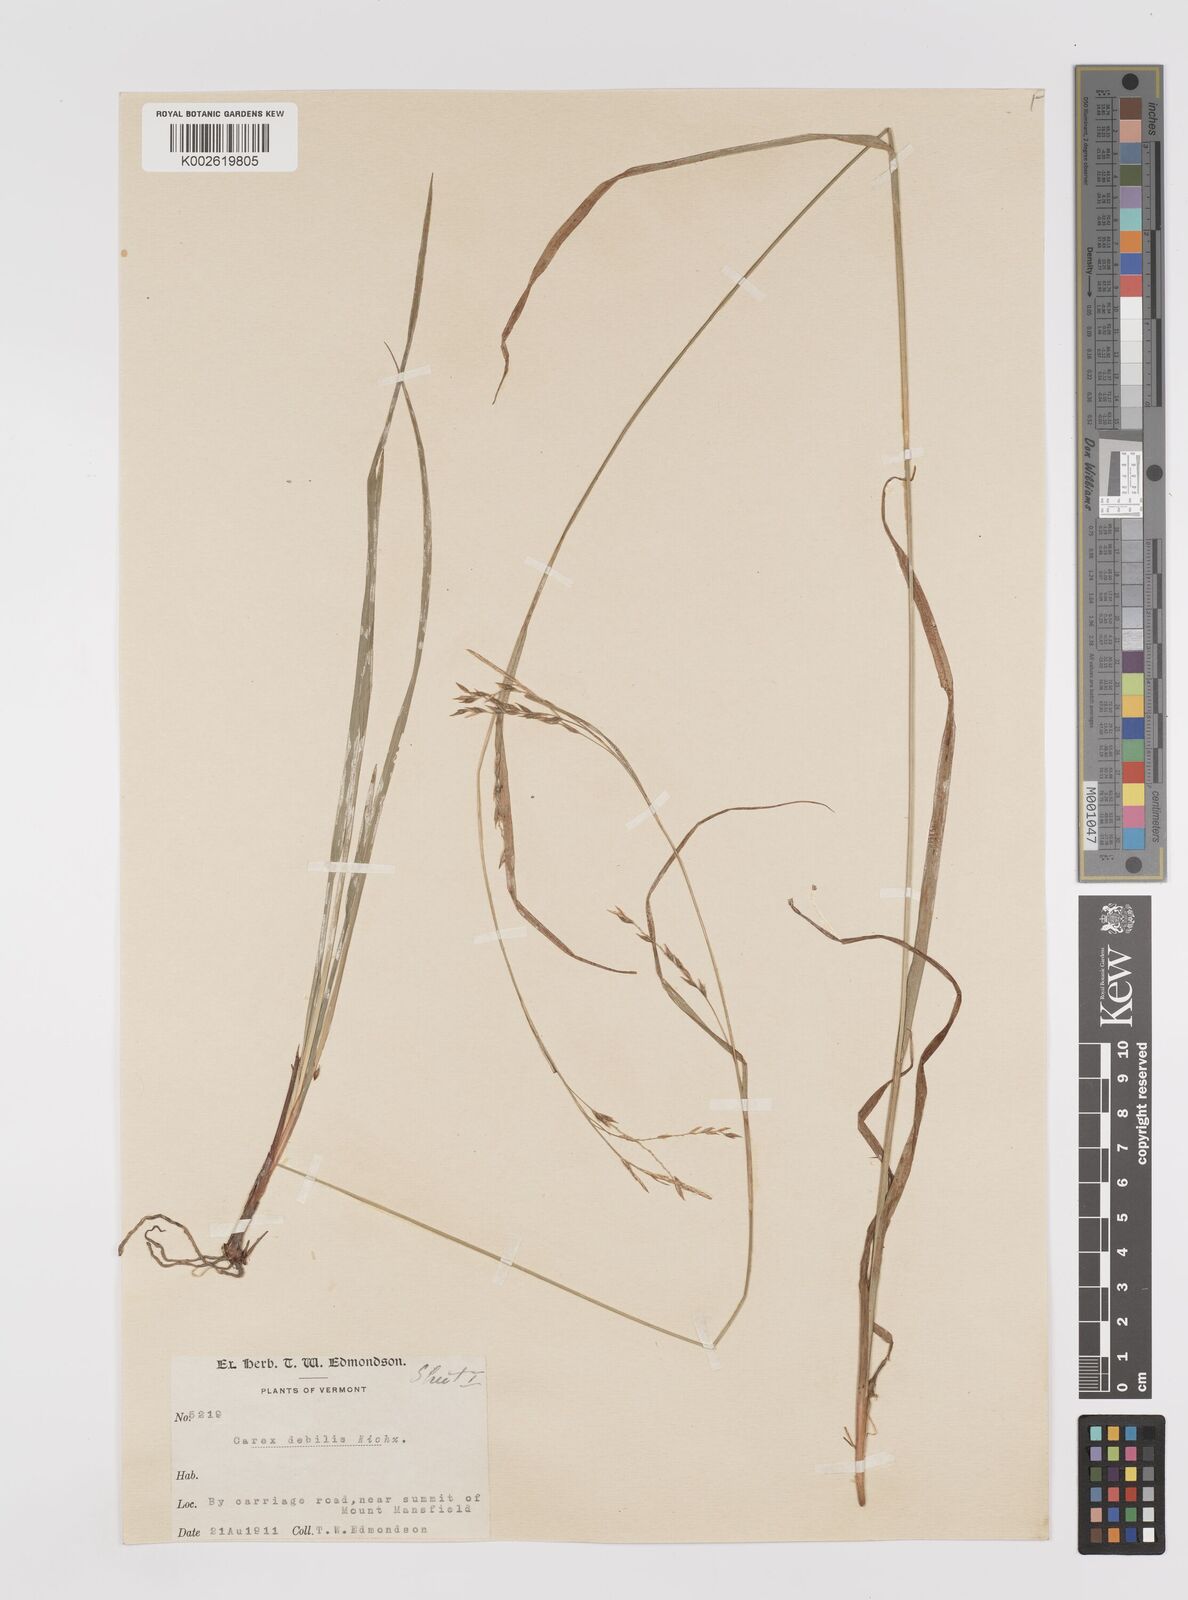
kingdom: Plantae
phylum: Tracheophyta
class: Liliopsida
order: Poales
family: Cyperaceae
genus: Carex
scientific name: Carex debilis
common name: White-edge sedge
